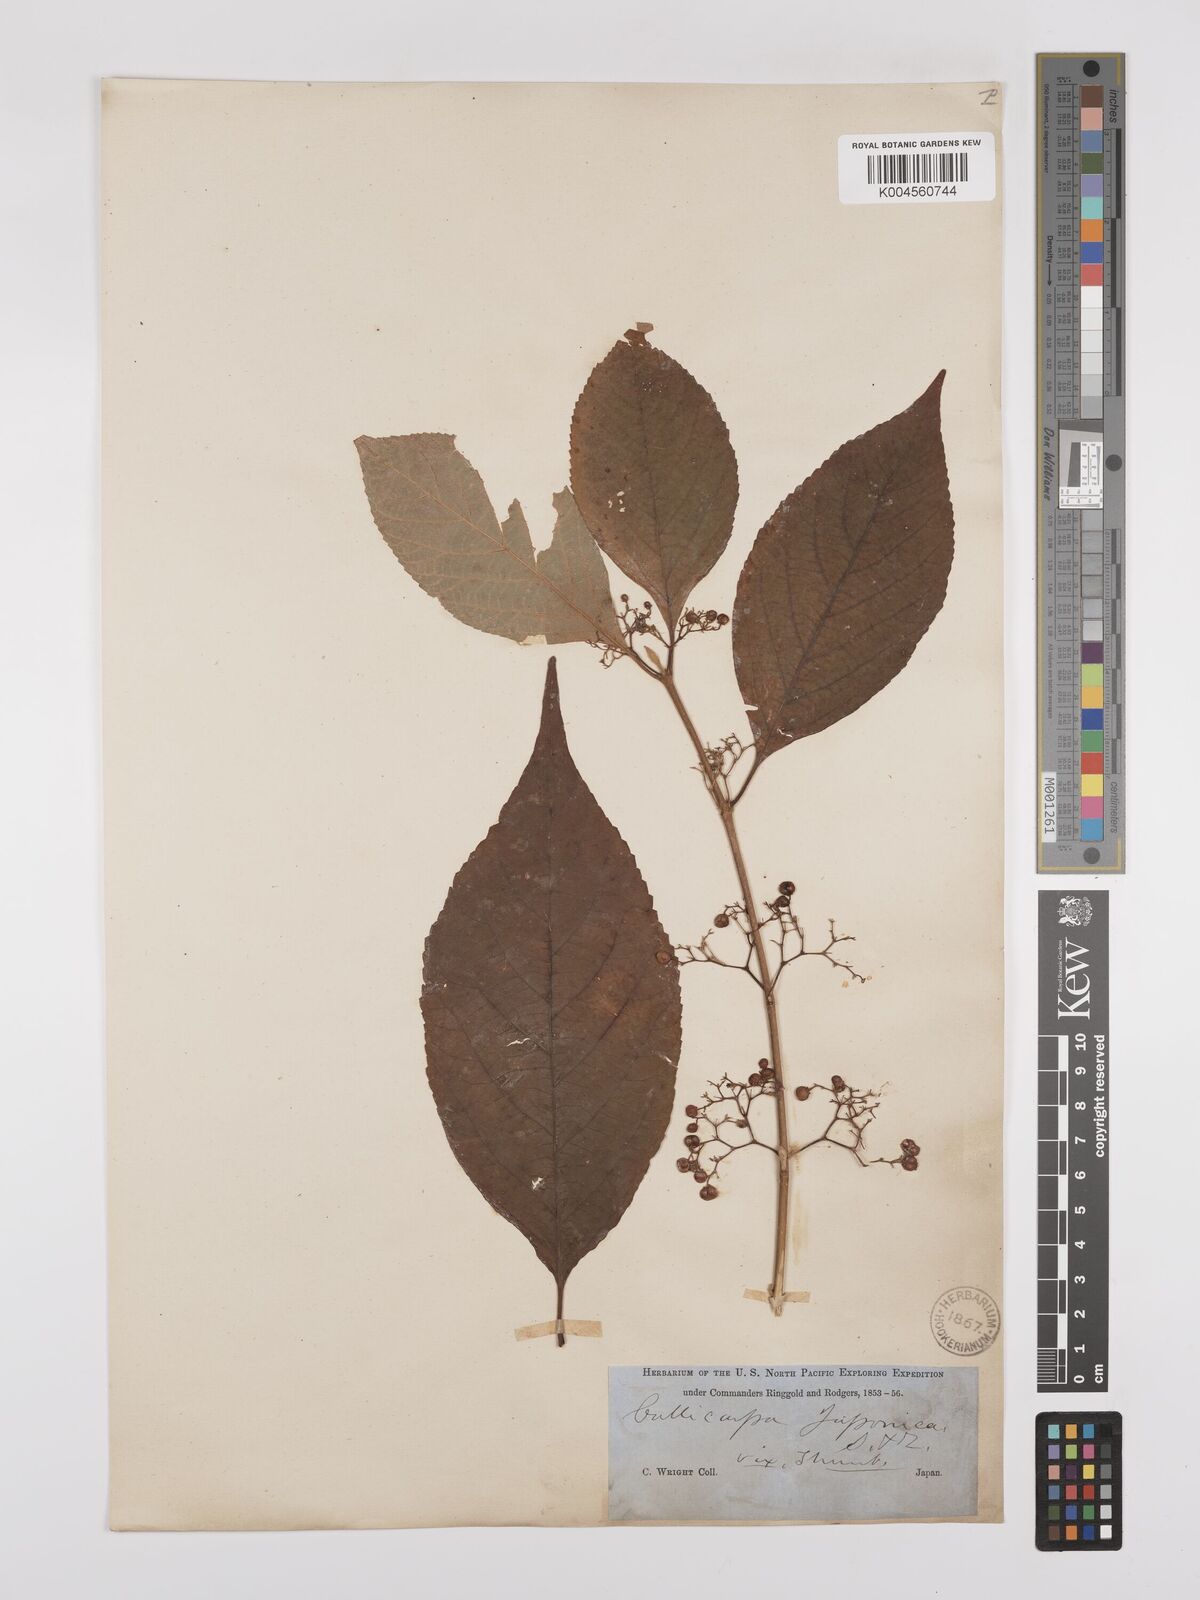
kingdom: Plantae
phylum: Tracheophyta
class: Magnoliopsida
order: Lamiales
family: Lamiaceae
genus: Callicarpa
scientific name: Callicarpa japonica
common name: Japanese beauty-berry
